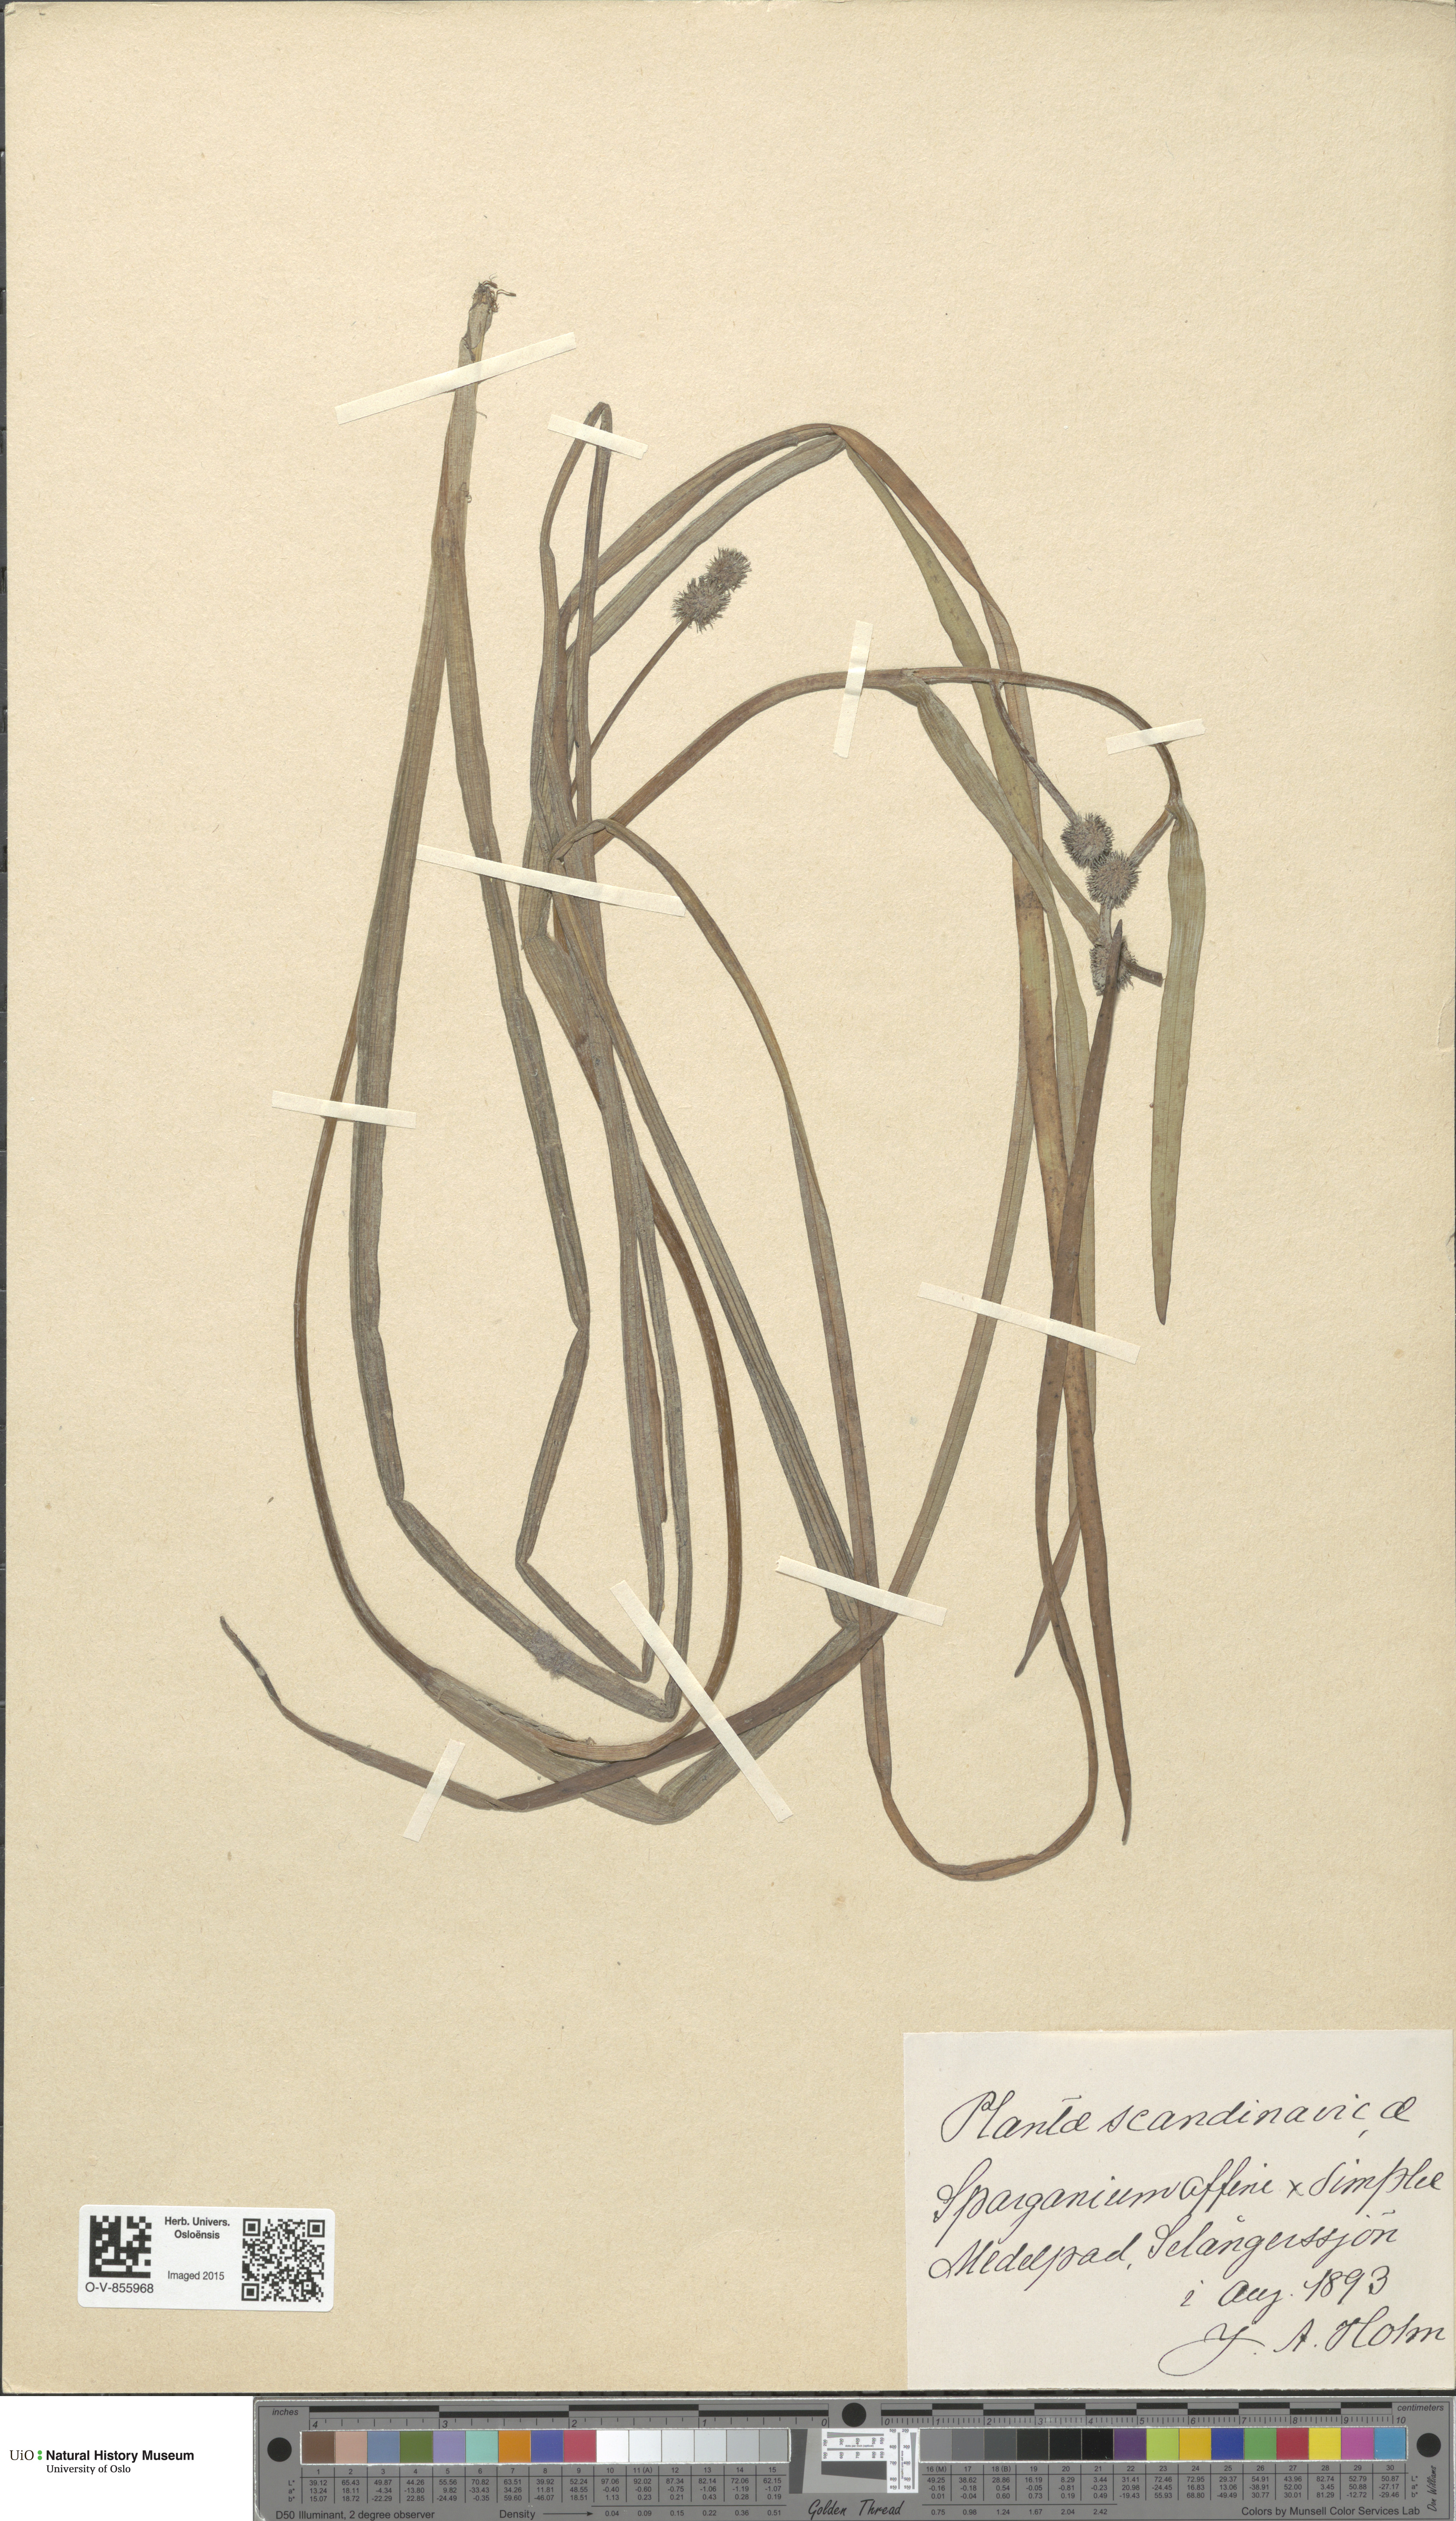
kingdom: Plantae
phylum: Tracheophyta
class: Liliopsida
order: Poales
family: Typhaceae
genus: Sparganium
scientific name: Sparganium
